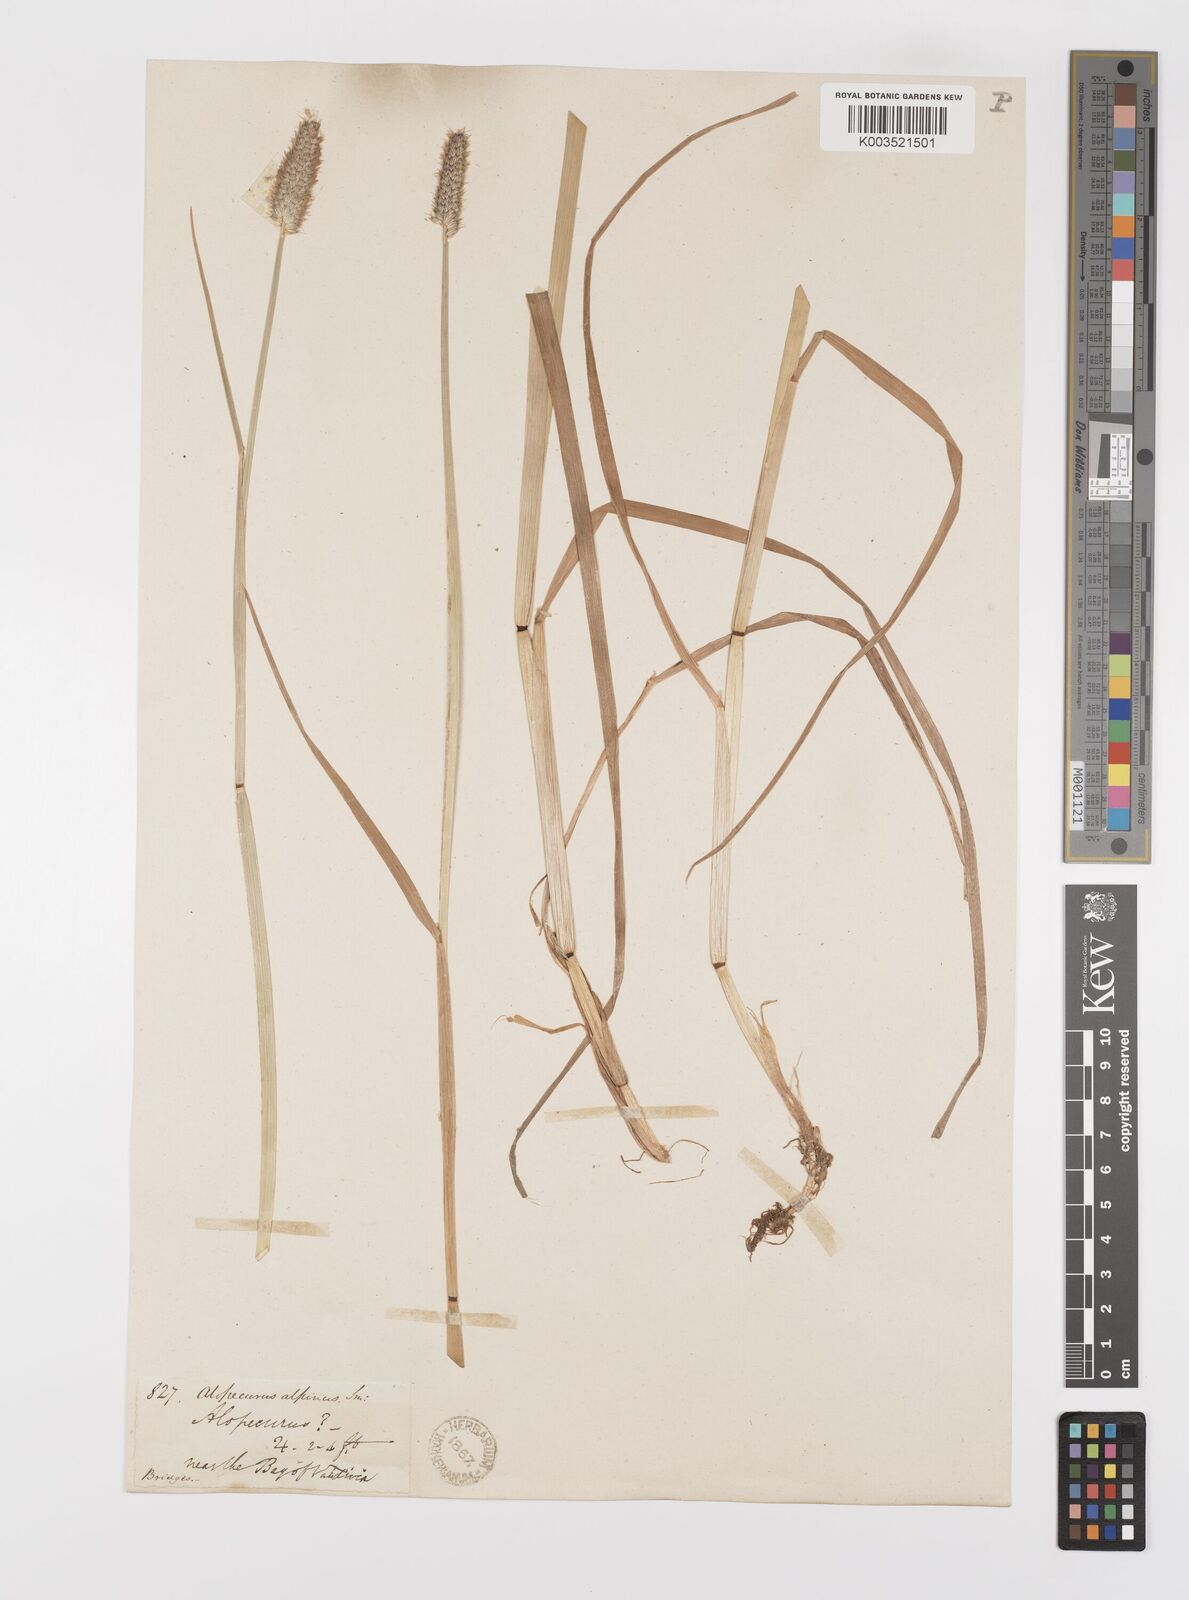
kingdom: Plantae
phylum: Tracheophyta
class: Liliopsida
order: Poales
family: Poaceae
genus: Alopecurus
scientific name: Alopecurus magellanicus
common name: Alpine foxtail
